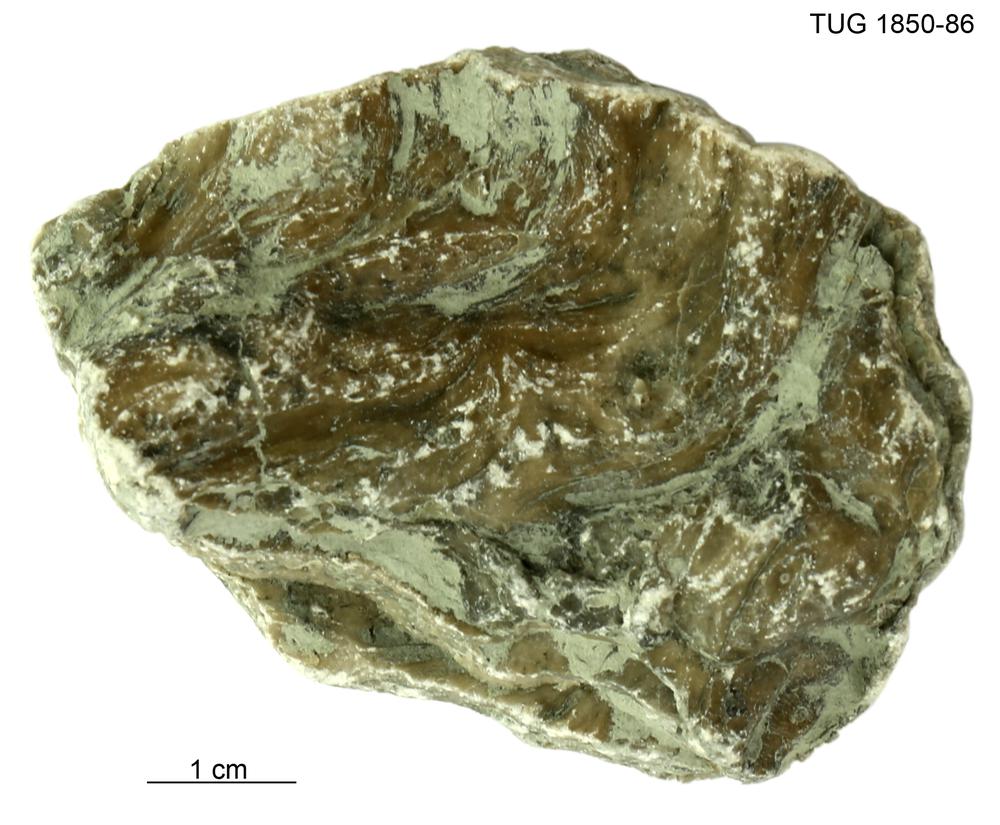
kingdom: Animalia
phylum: Porifera
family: Labechiidae
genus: Labechia
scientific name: Labechia
